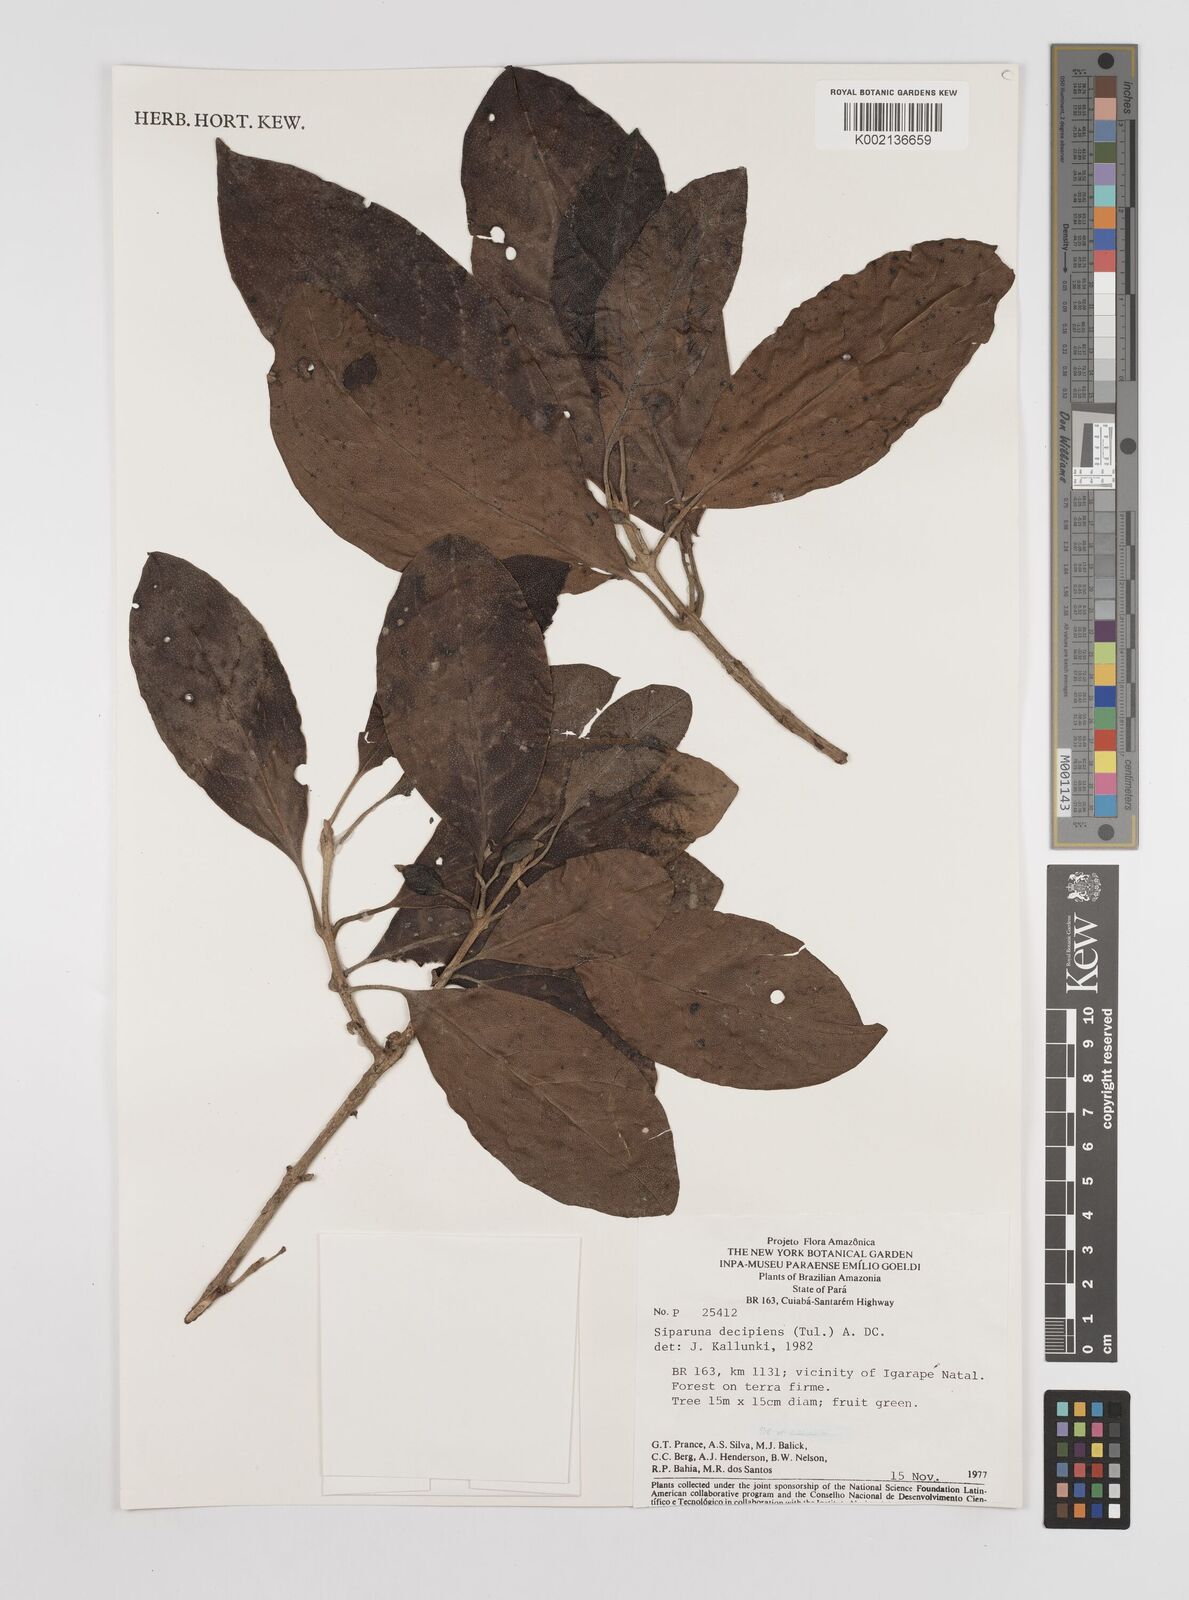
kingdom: Plantae
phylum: Tracheophyta
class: Magnoliopsida
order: Laurales
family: Siparunaceae
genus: Siparuna
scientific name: Siparuna decipiens
